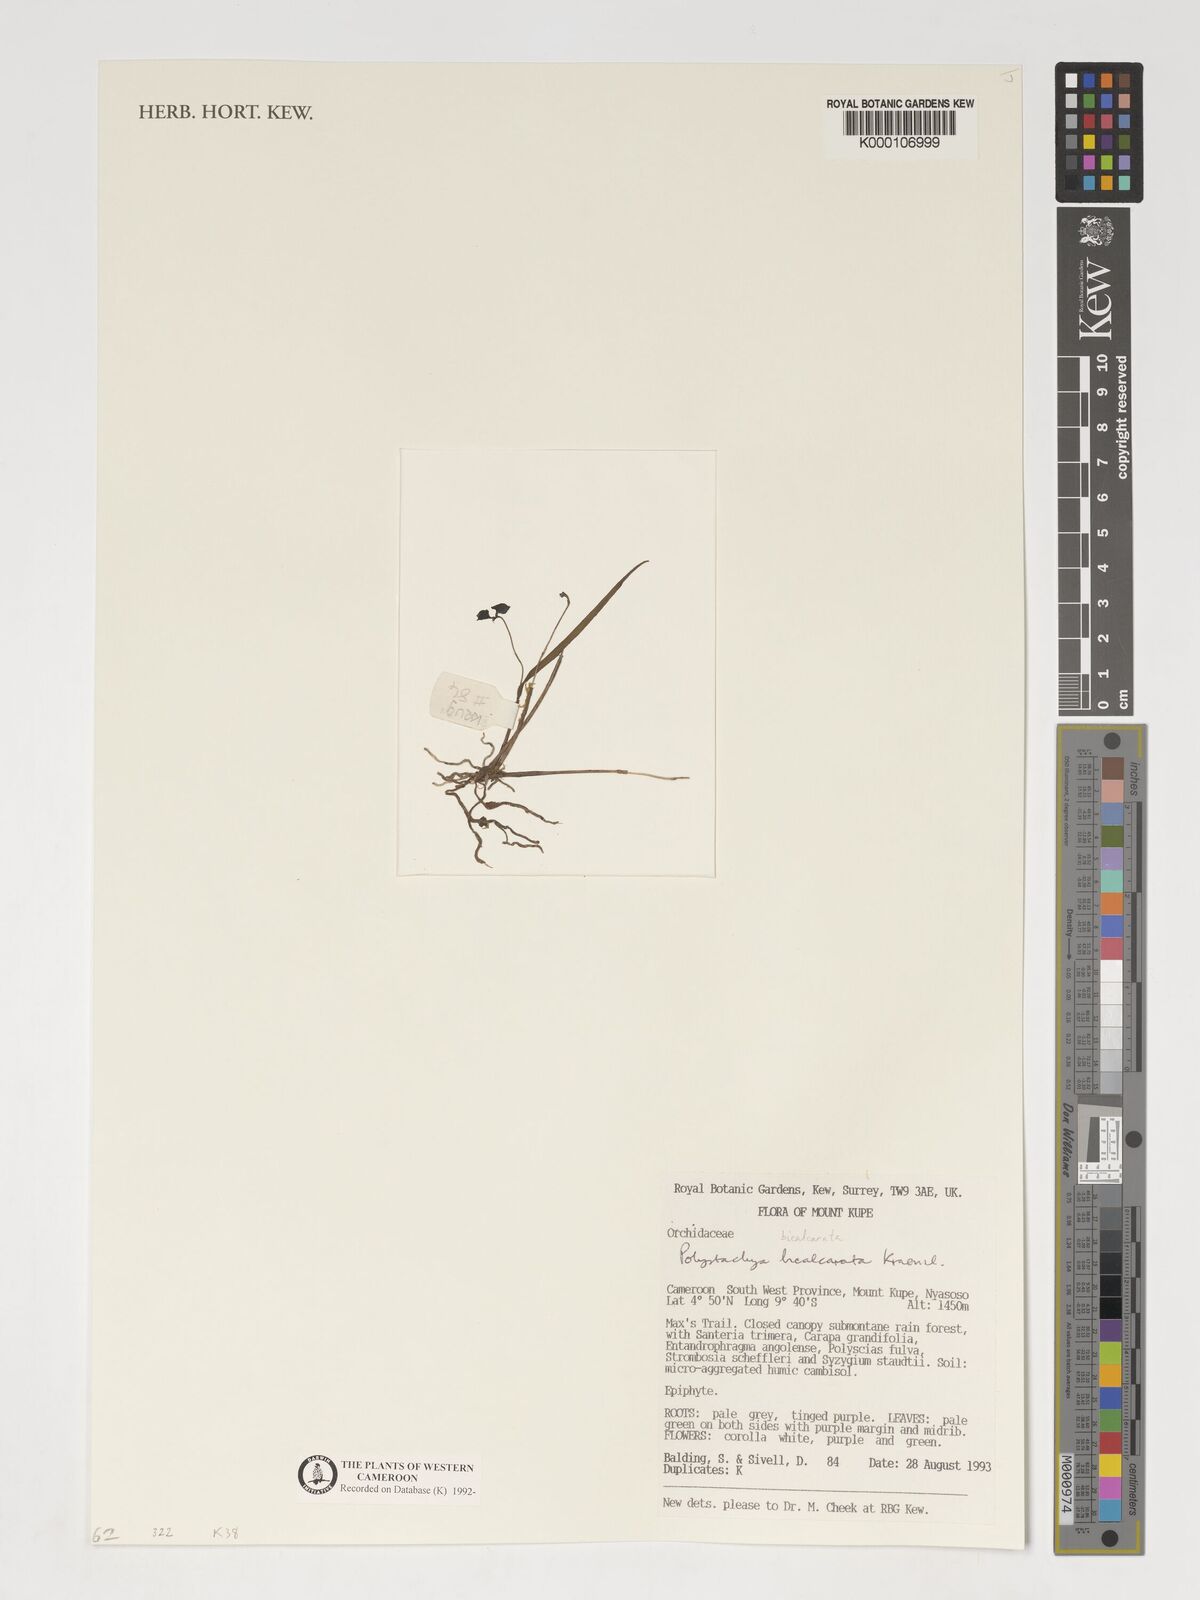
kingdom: Plantae
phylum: Tracheophyta
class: Liliopsida
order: Asparagales
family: Orchidaceae
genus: Polystachya
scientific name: Polystachya bicalcarata
